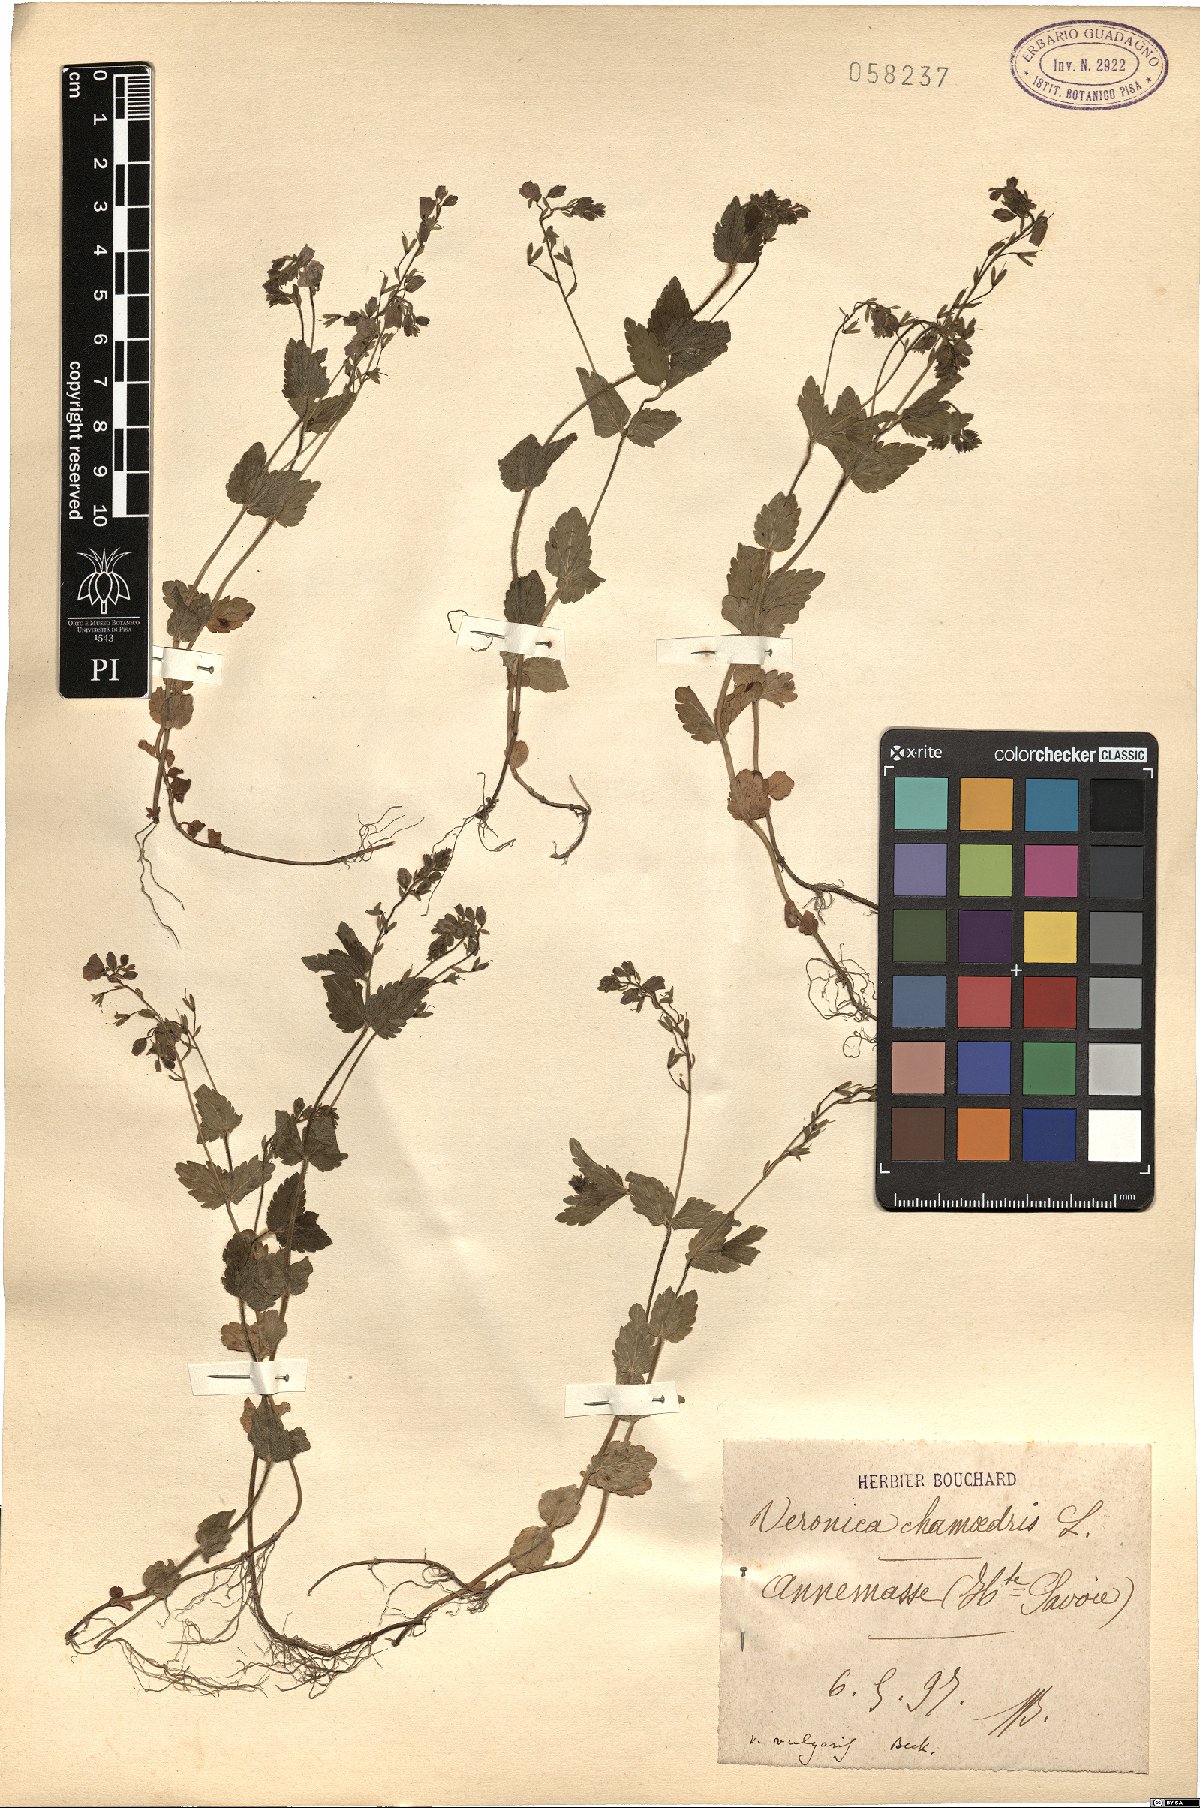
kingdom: Plantae
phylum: Tracheophyta
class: Magnoliopsida
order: Lamiales
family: Plantaginaceae
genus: Veronica
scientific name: Veronica chamaedrys
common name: Germander speedwell
